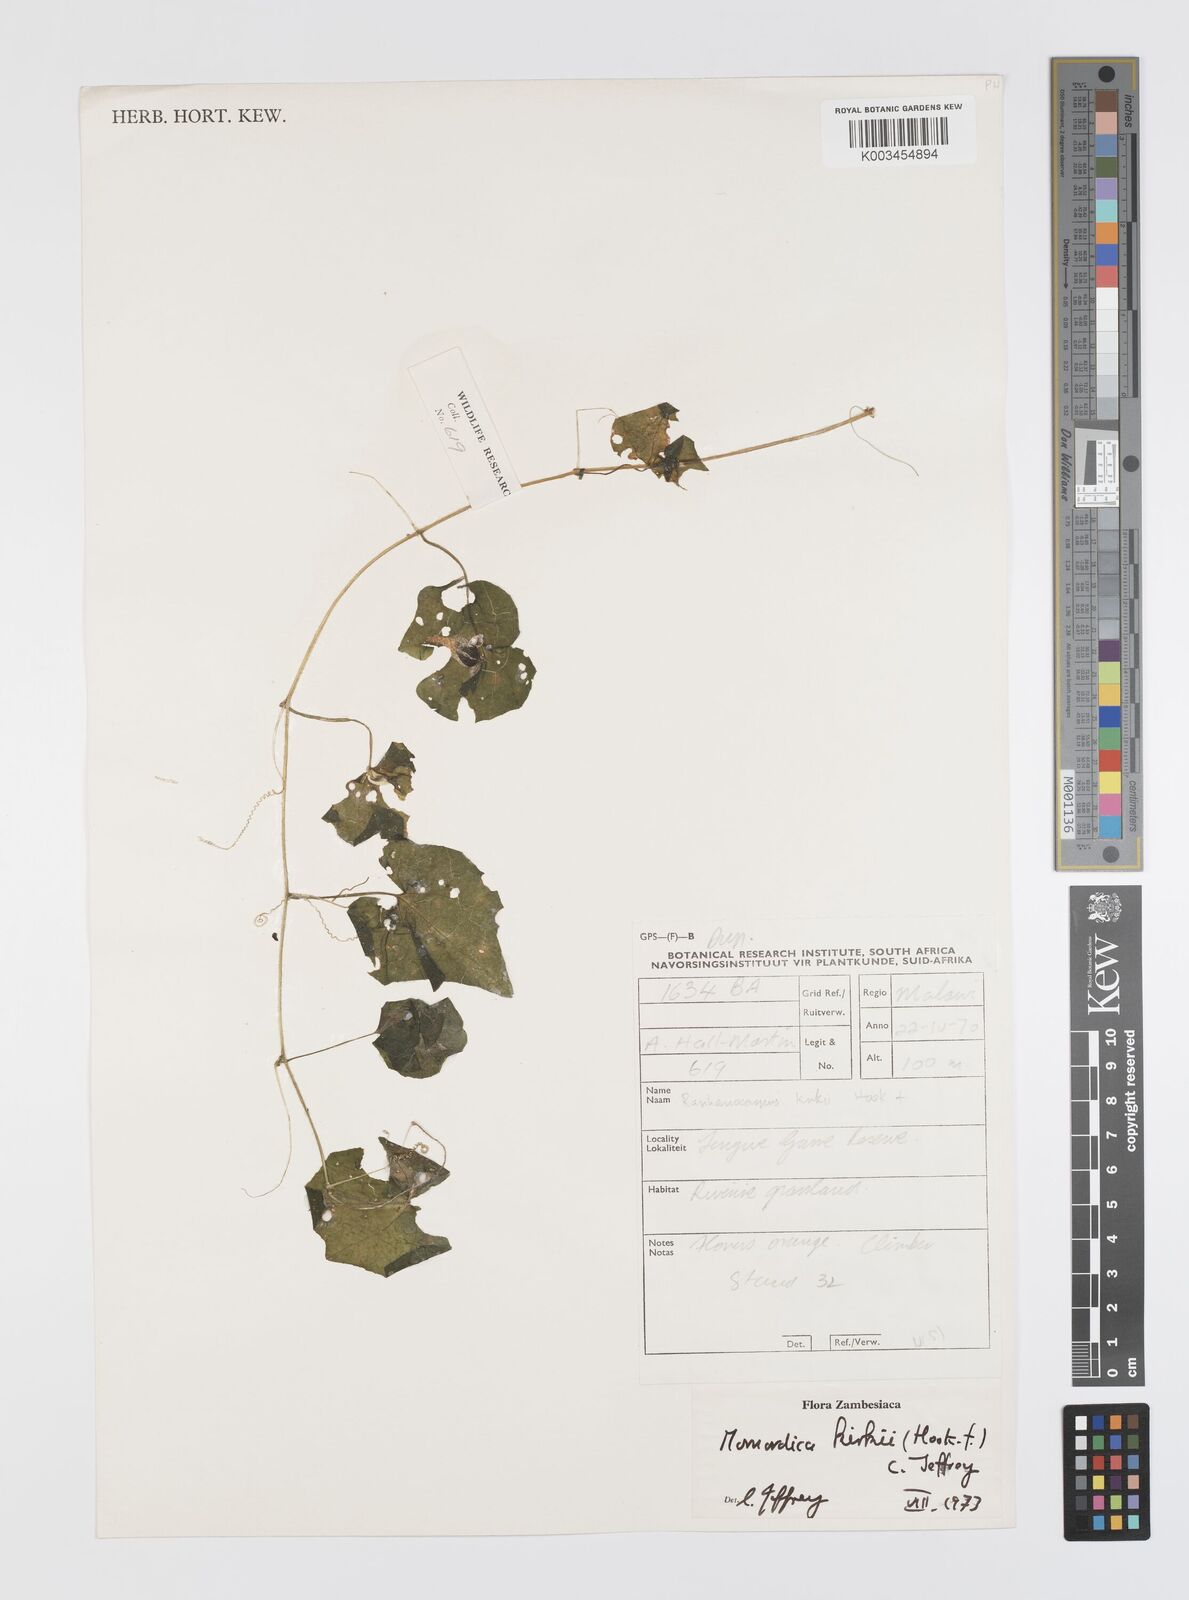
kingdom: Plantae
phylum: Tracheophyta
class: Magnoliopsida
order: Cucurbitales
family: Cucurbitaceae
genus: Momordica
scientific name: Momordica kirkii
